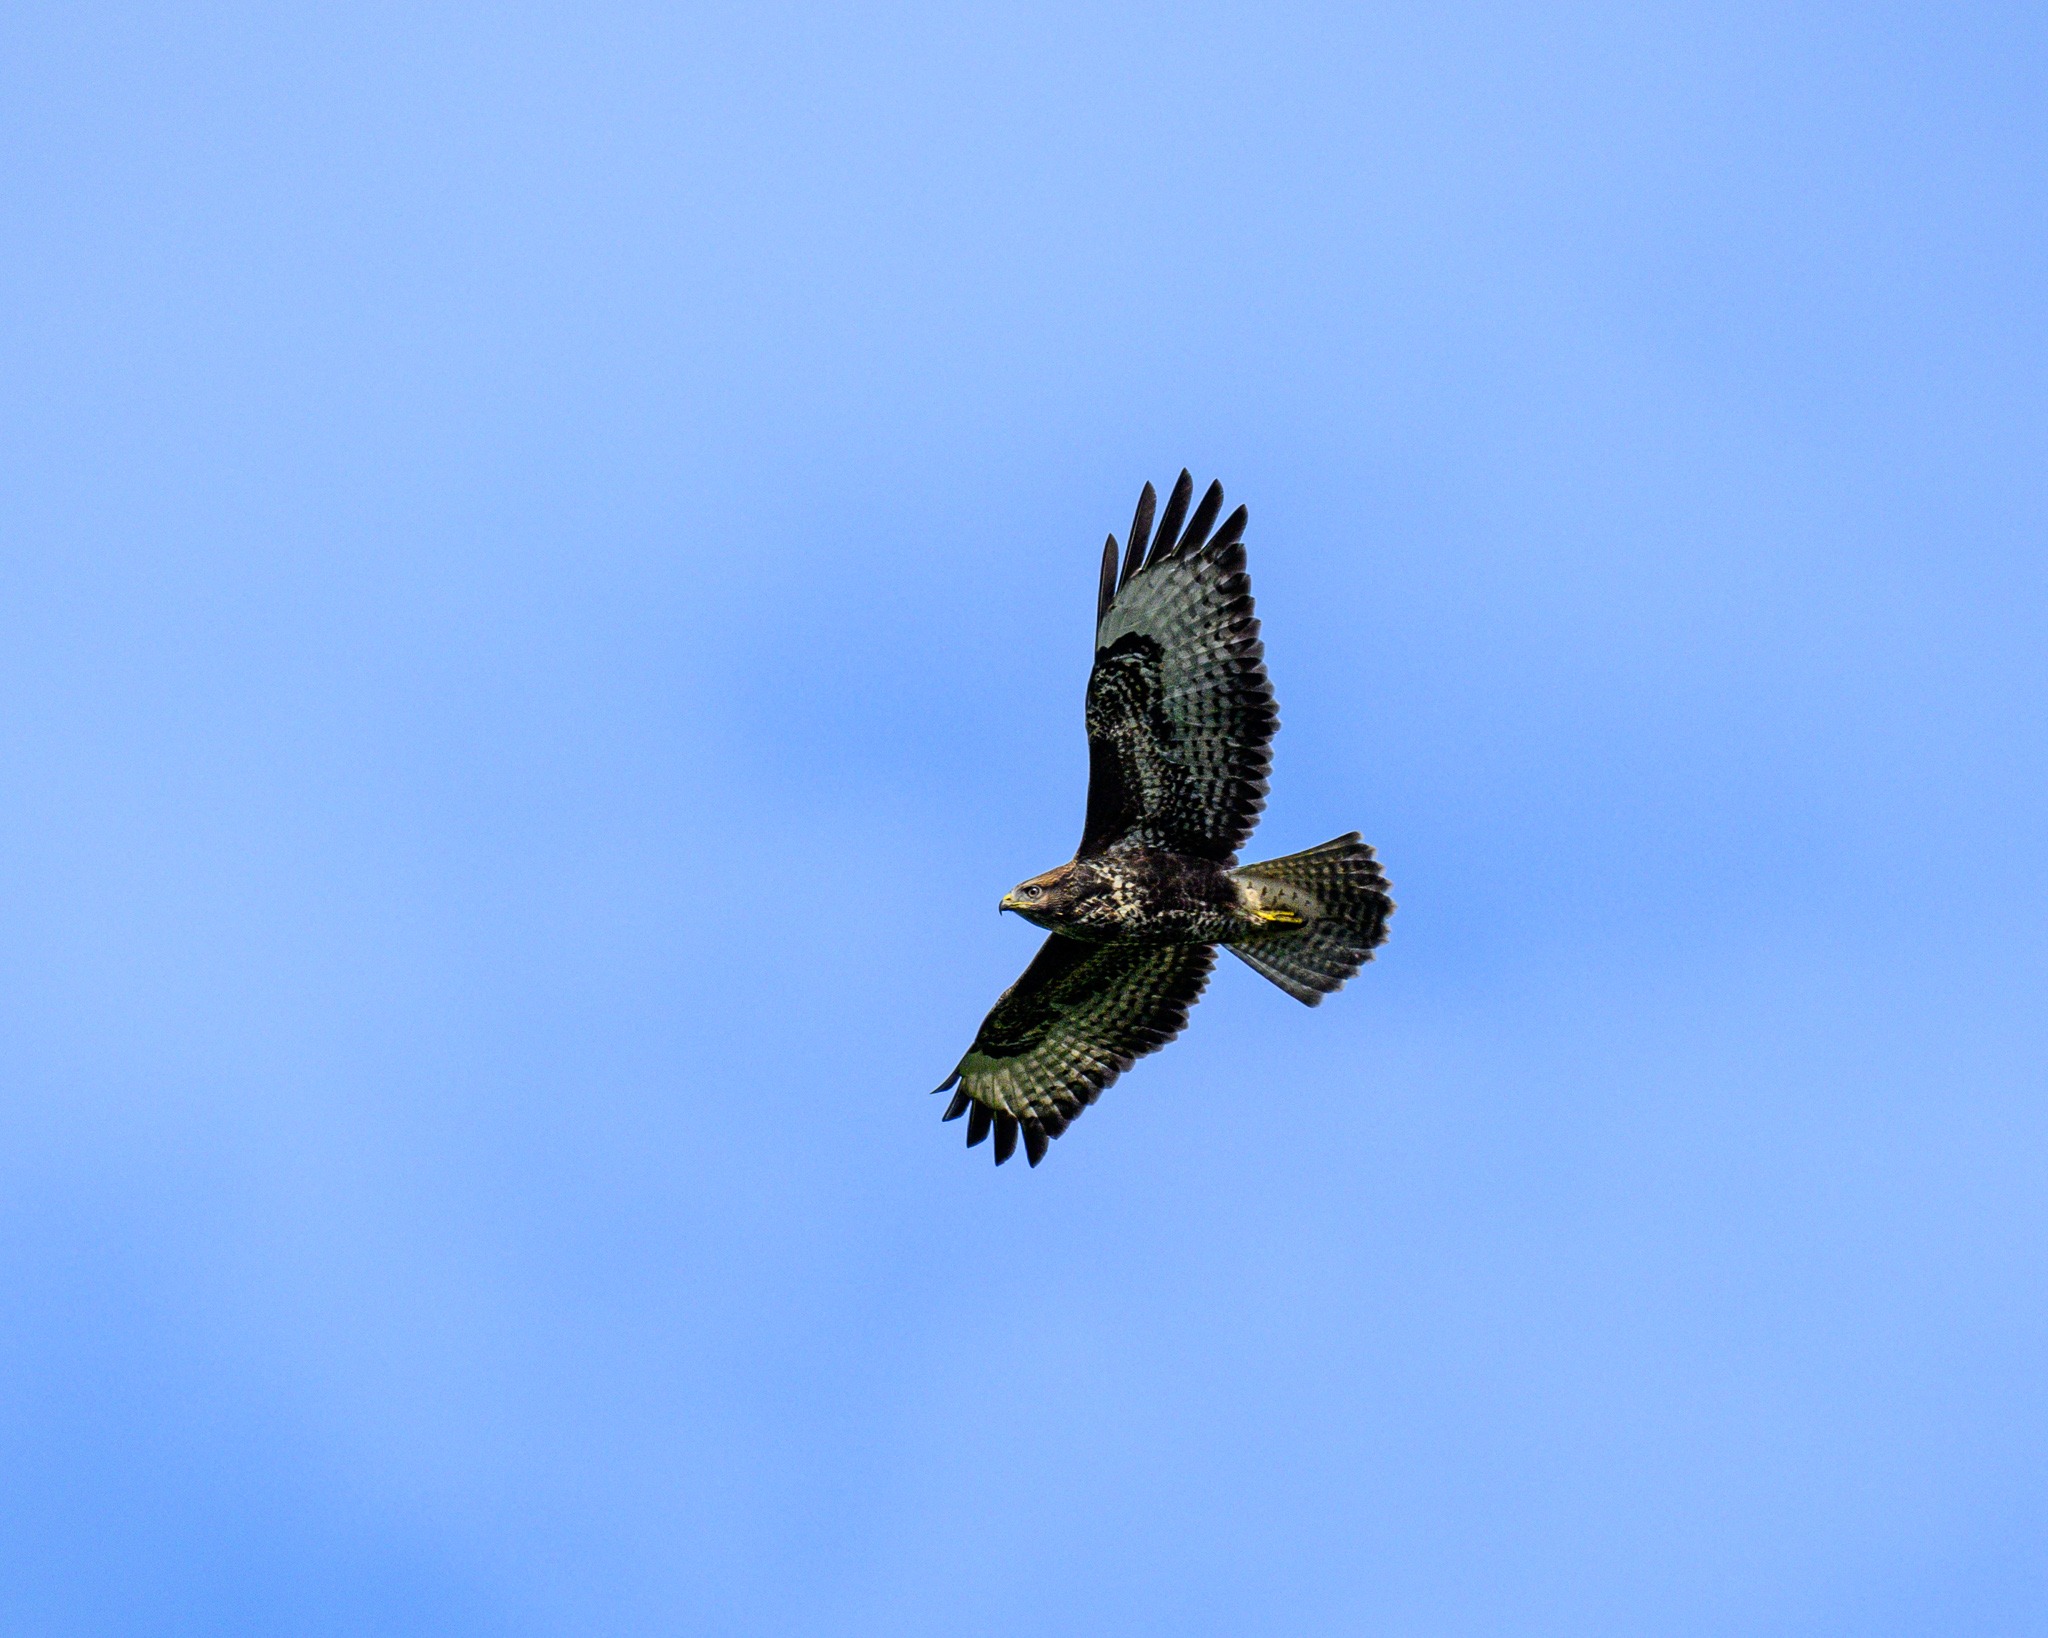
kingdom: Animalia
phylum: Chordata
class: Aves
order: Accipitriformes
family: Accipitridae
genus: Buteo
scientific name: Buteo buteo
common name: Musvåge
